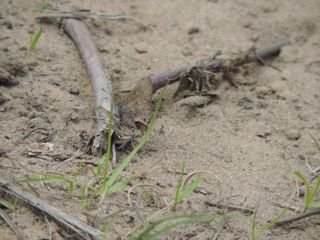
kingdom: Animalia
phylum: Arthropoda
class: Insecta
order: Lepidoptera
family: Lycaenidae
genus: Thecla
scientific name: Thecla irus
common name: Frosted Elfin
